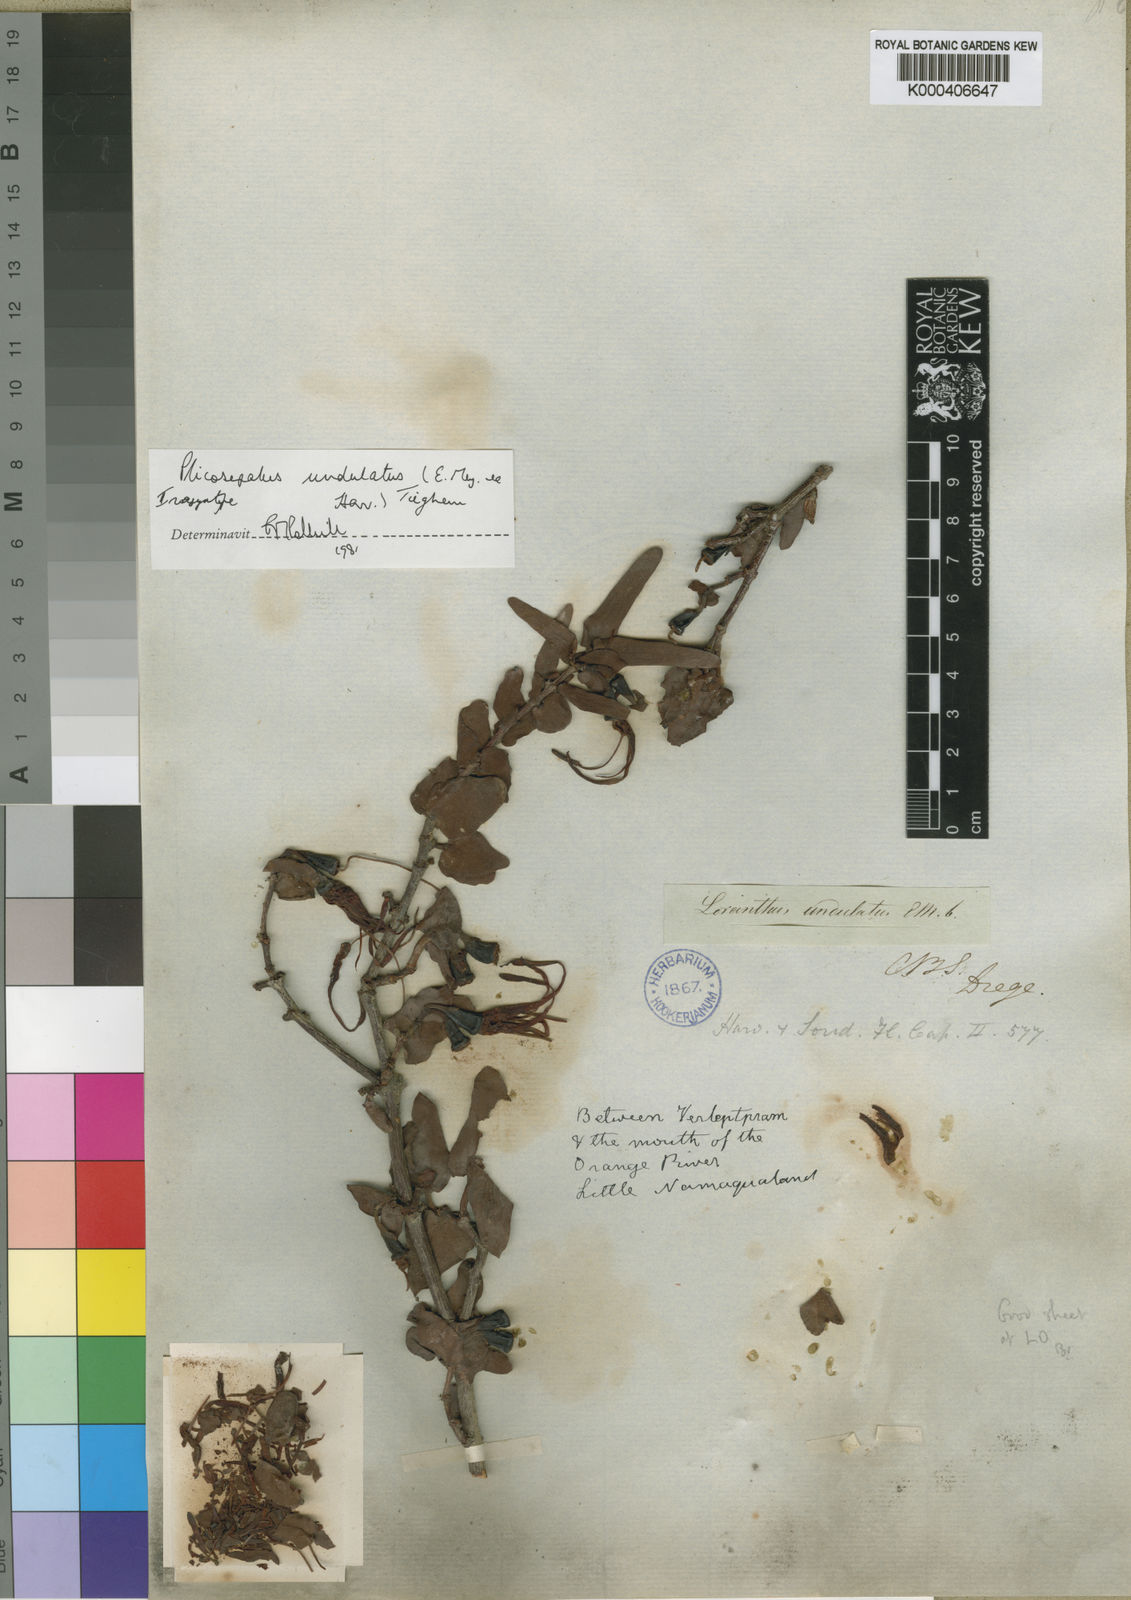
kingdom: Plantae
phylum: Tracheophyta
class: Magnoliopsida
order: Santalales
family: Loranthaceae
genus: Plicosepalus
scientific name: Plicosepalus undulatus
